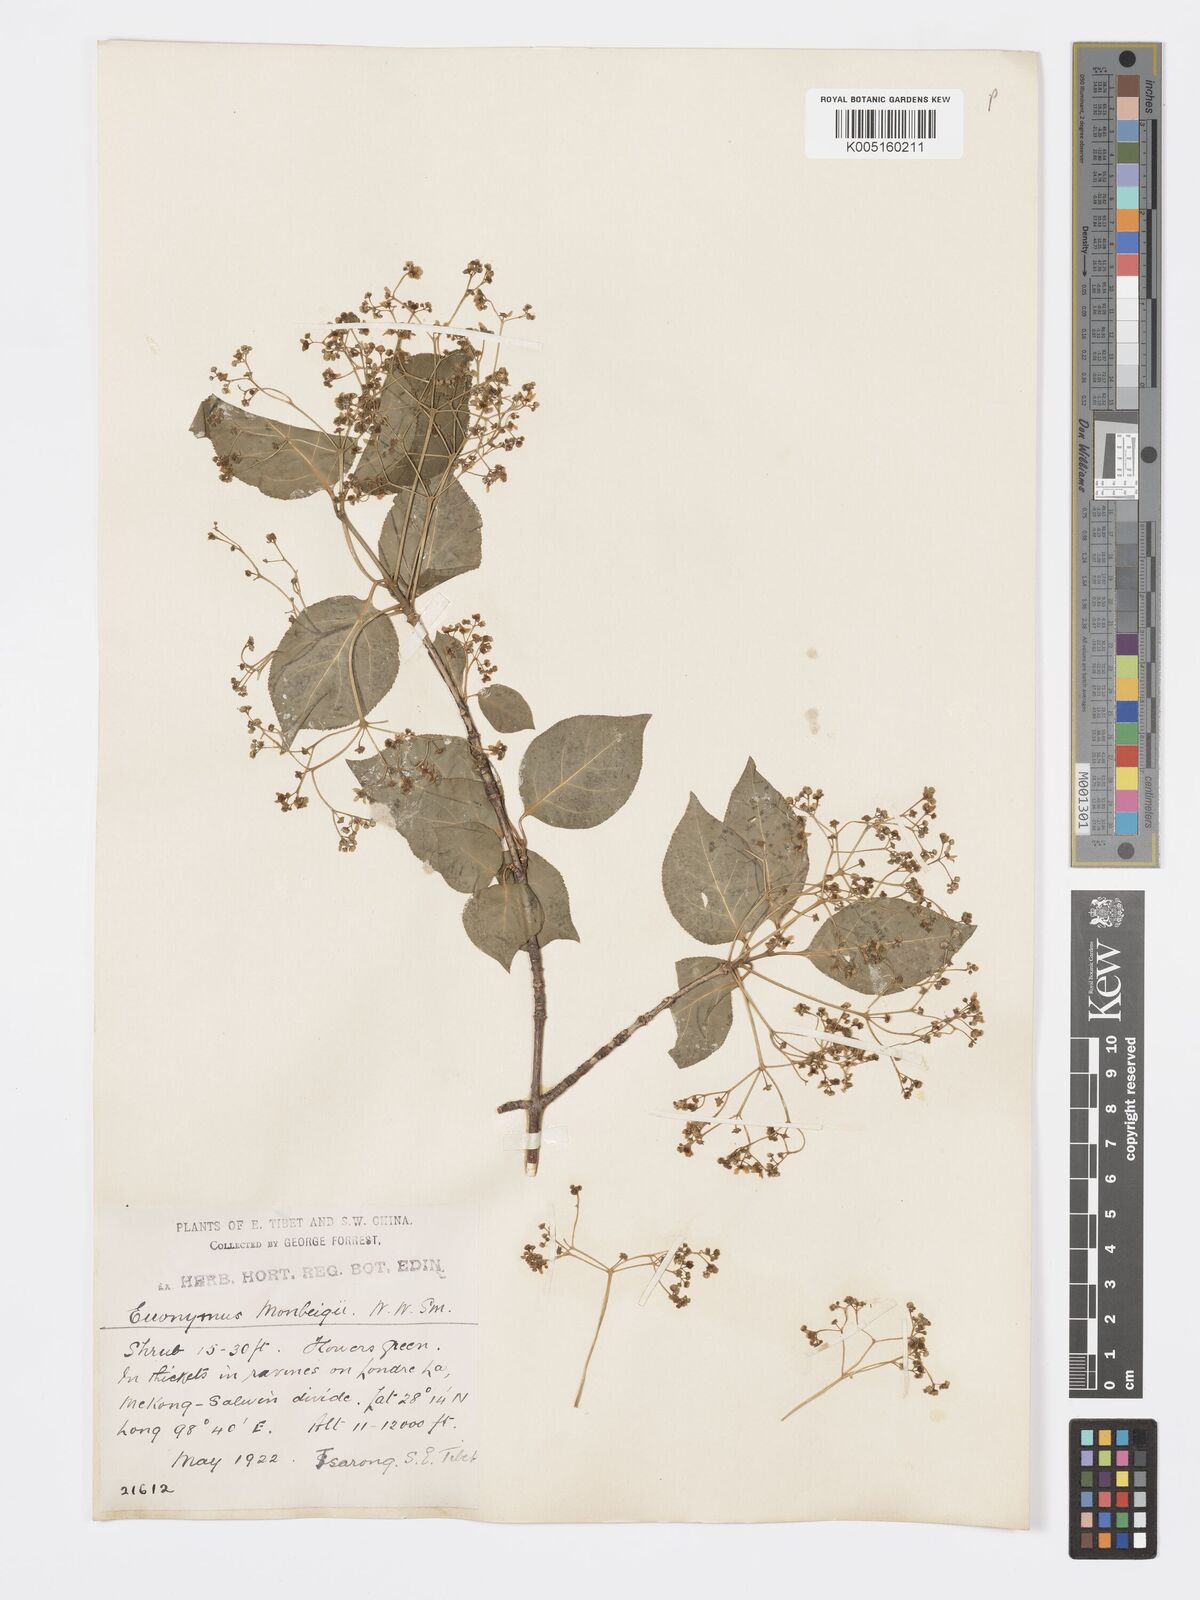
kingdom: Plantae
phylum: Tracheophyta
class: Magnoliopsida
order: Celastrales
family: Celastraceae
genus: Euonymus
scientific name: Euonymus sanguineus
